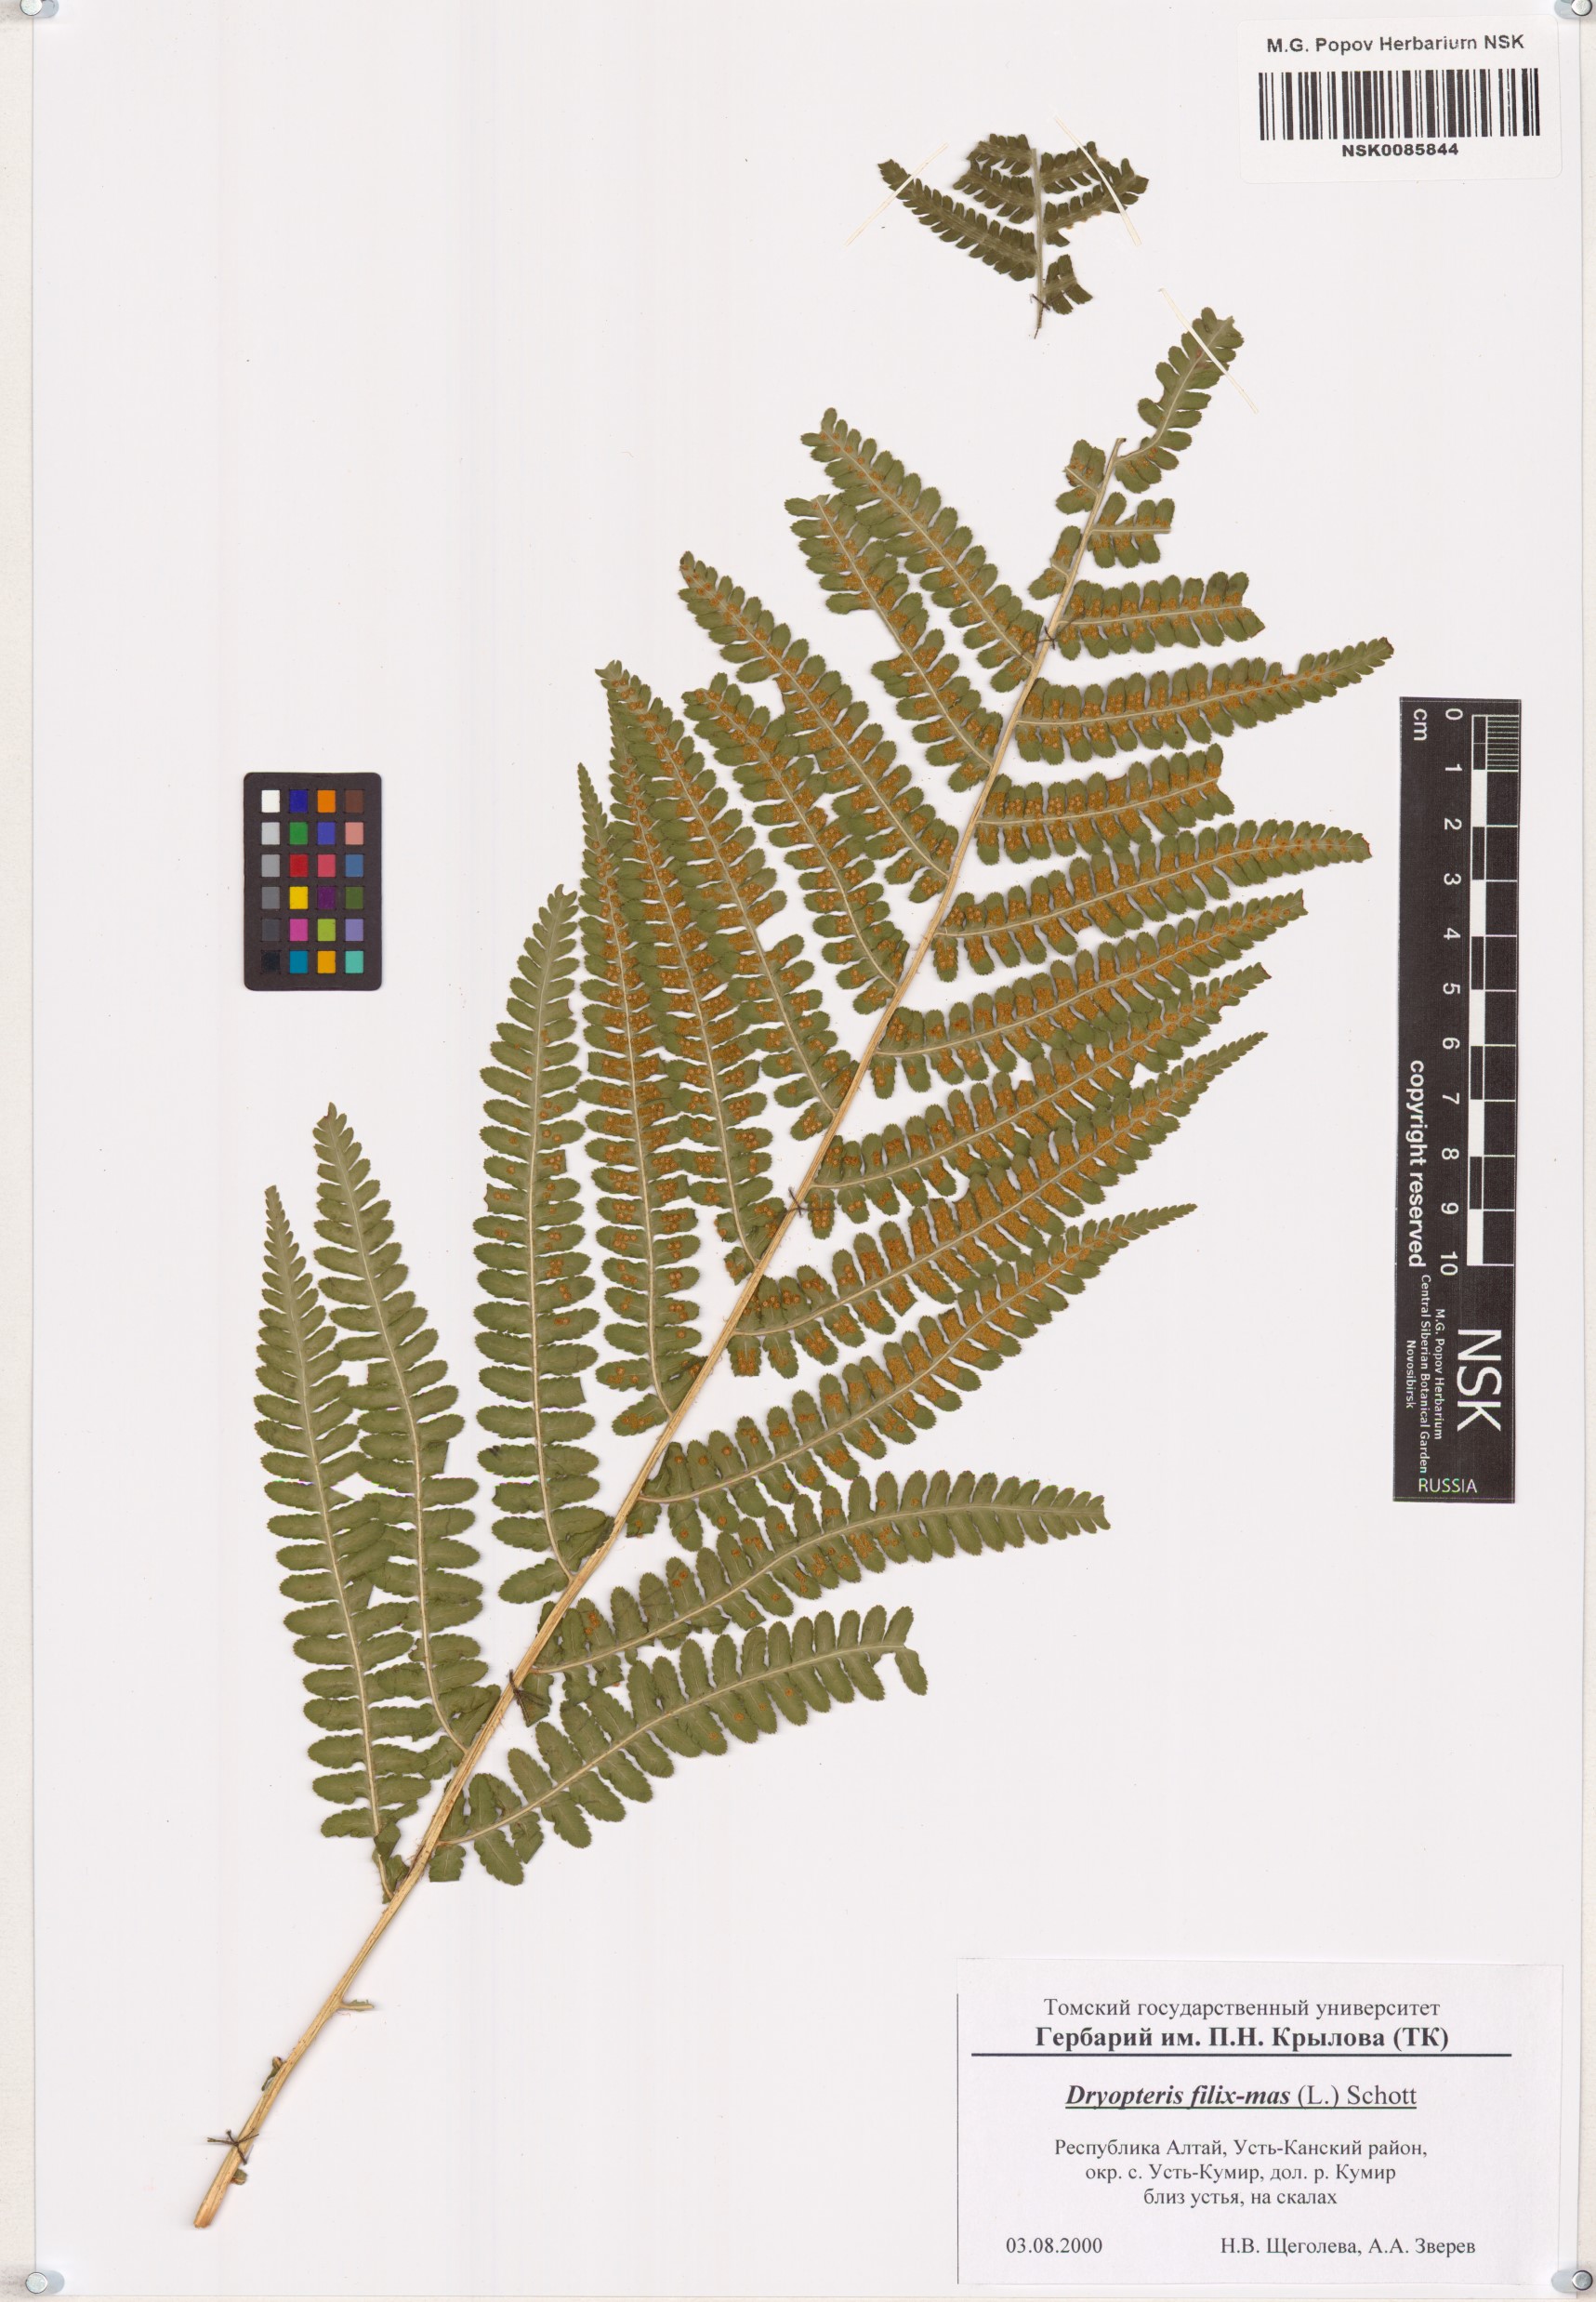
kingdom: Plantae
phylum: Tracheophyta
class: Polypodiopsida
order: Polypodiales
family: Dryopteridaceae
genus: Dryopteris
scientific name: Dryopteris filix-mas
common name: Male fern
